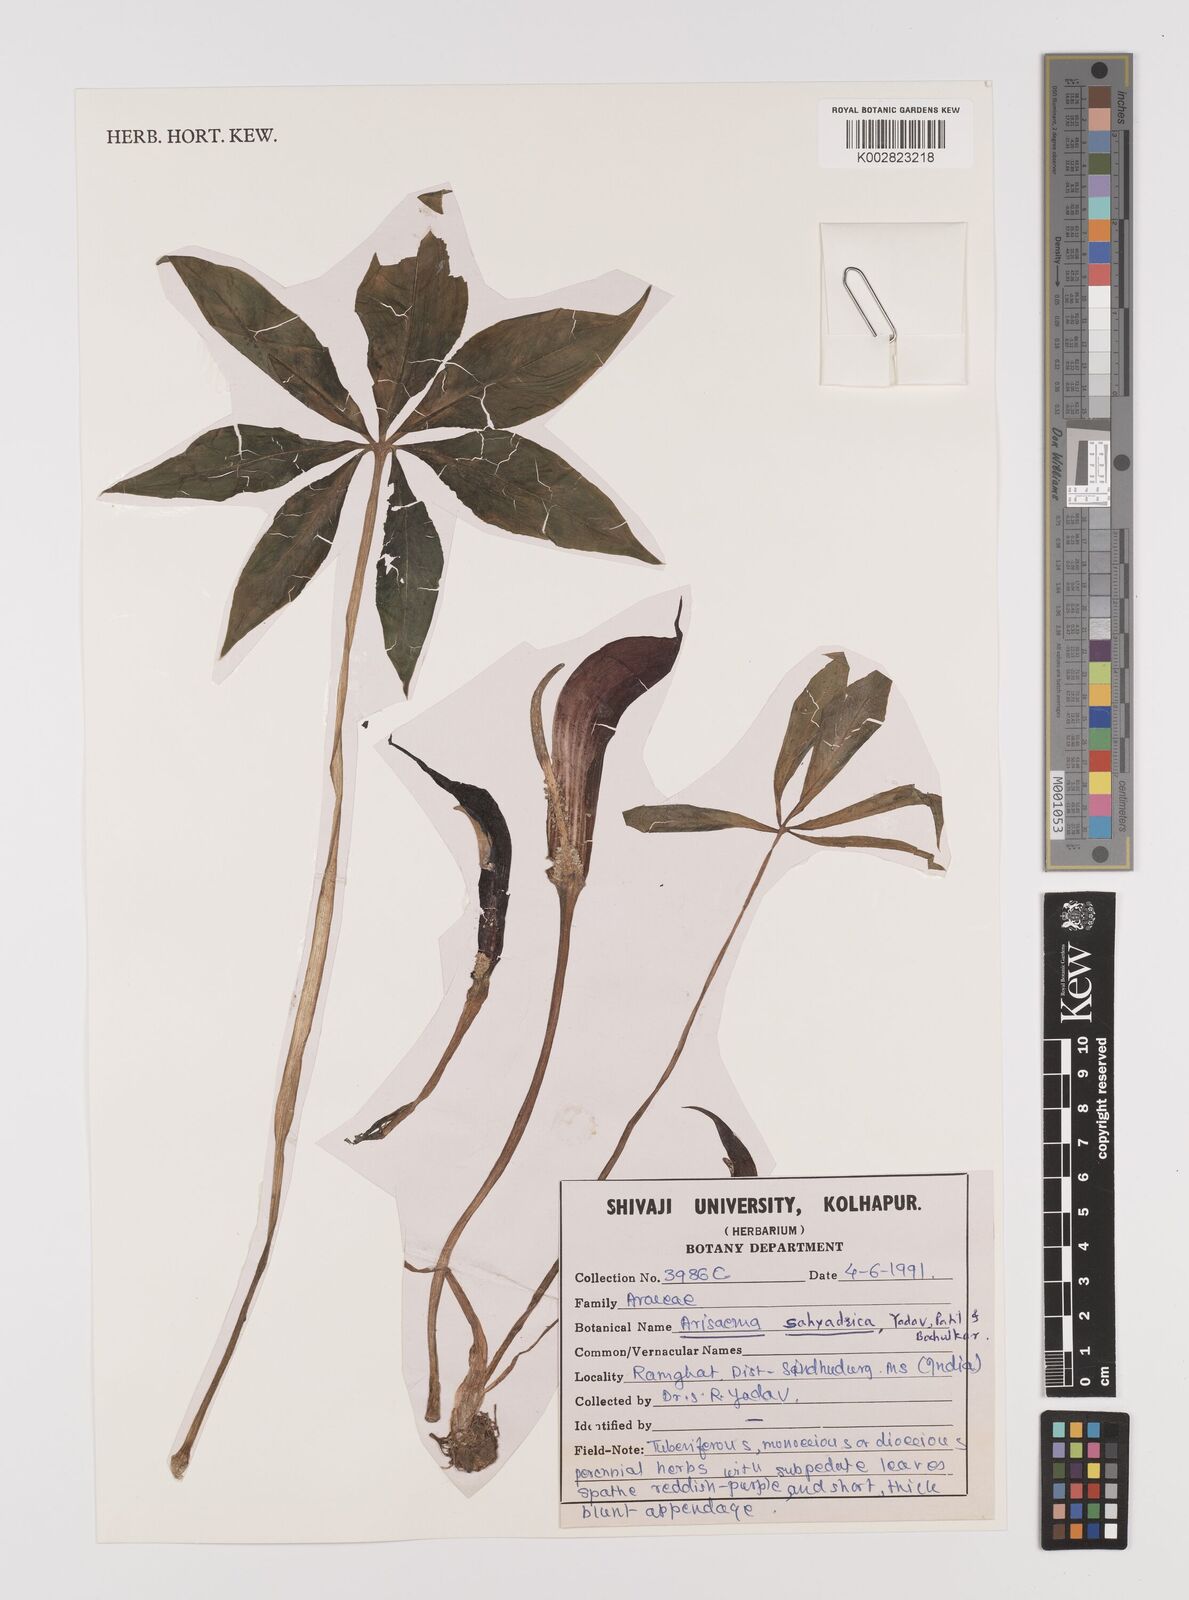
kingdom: Plantae
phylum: Tracheophyta
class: Liliopsida
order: Alismatales
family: Araceae
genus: Arisaema
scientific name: Arisaema murrayi
